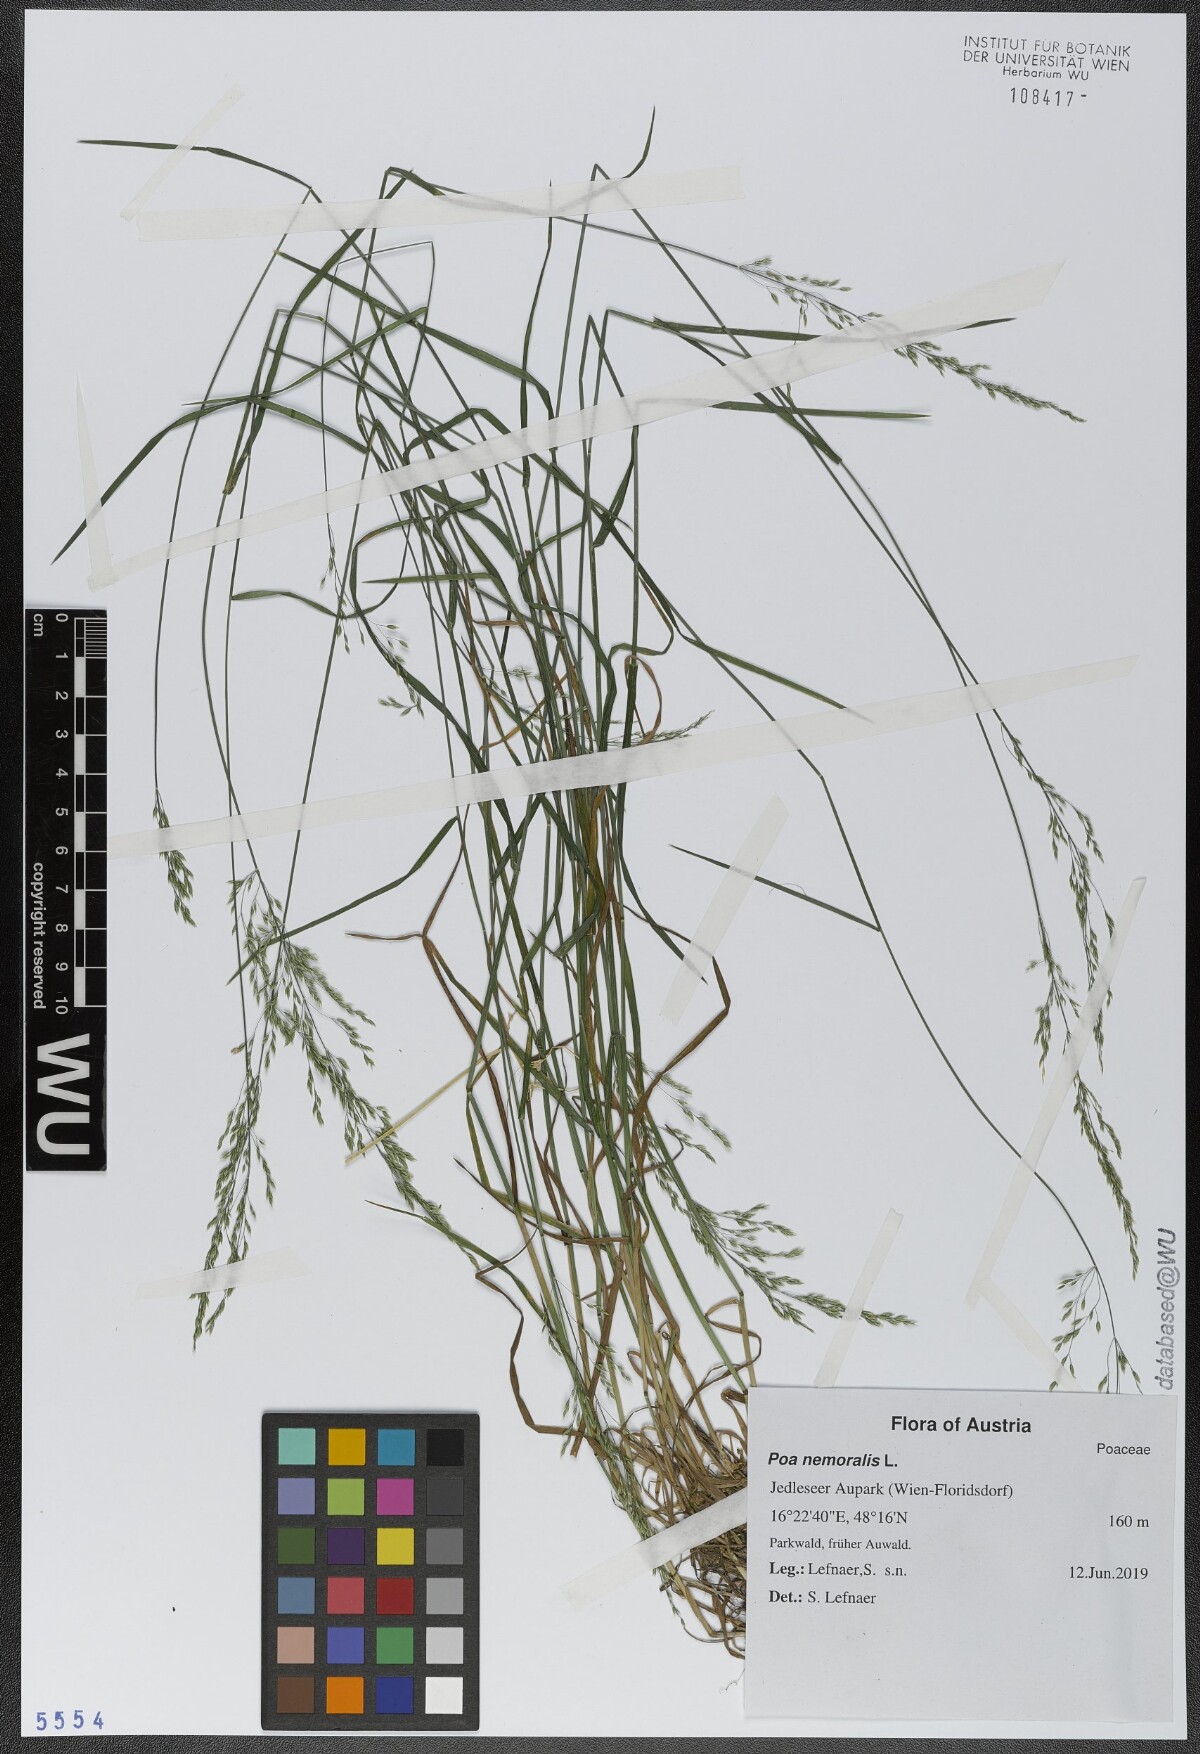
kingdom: Plantae
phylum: Tracheophyta
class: Liliopsida
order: Poales
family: Poaceae
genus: Poa
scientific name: Poa nemoralis
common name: Wood bluegrass
